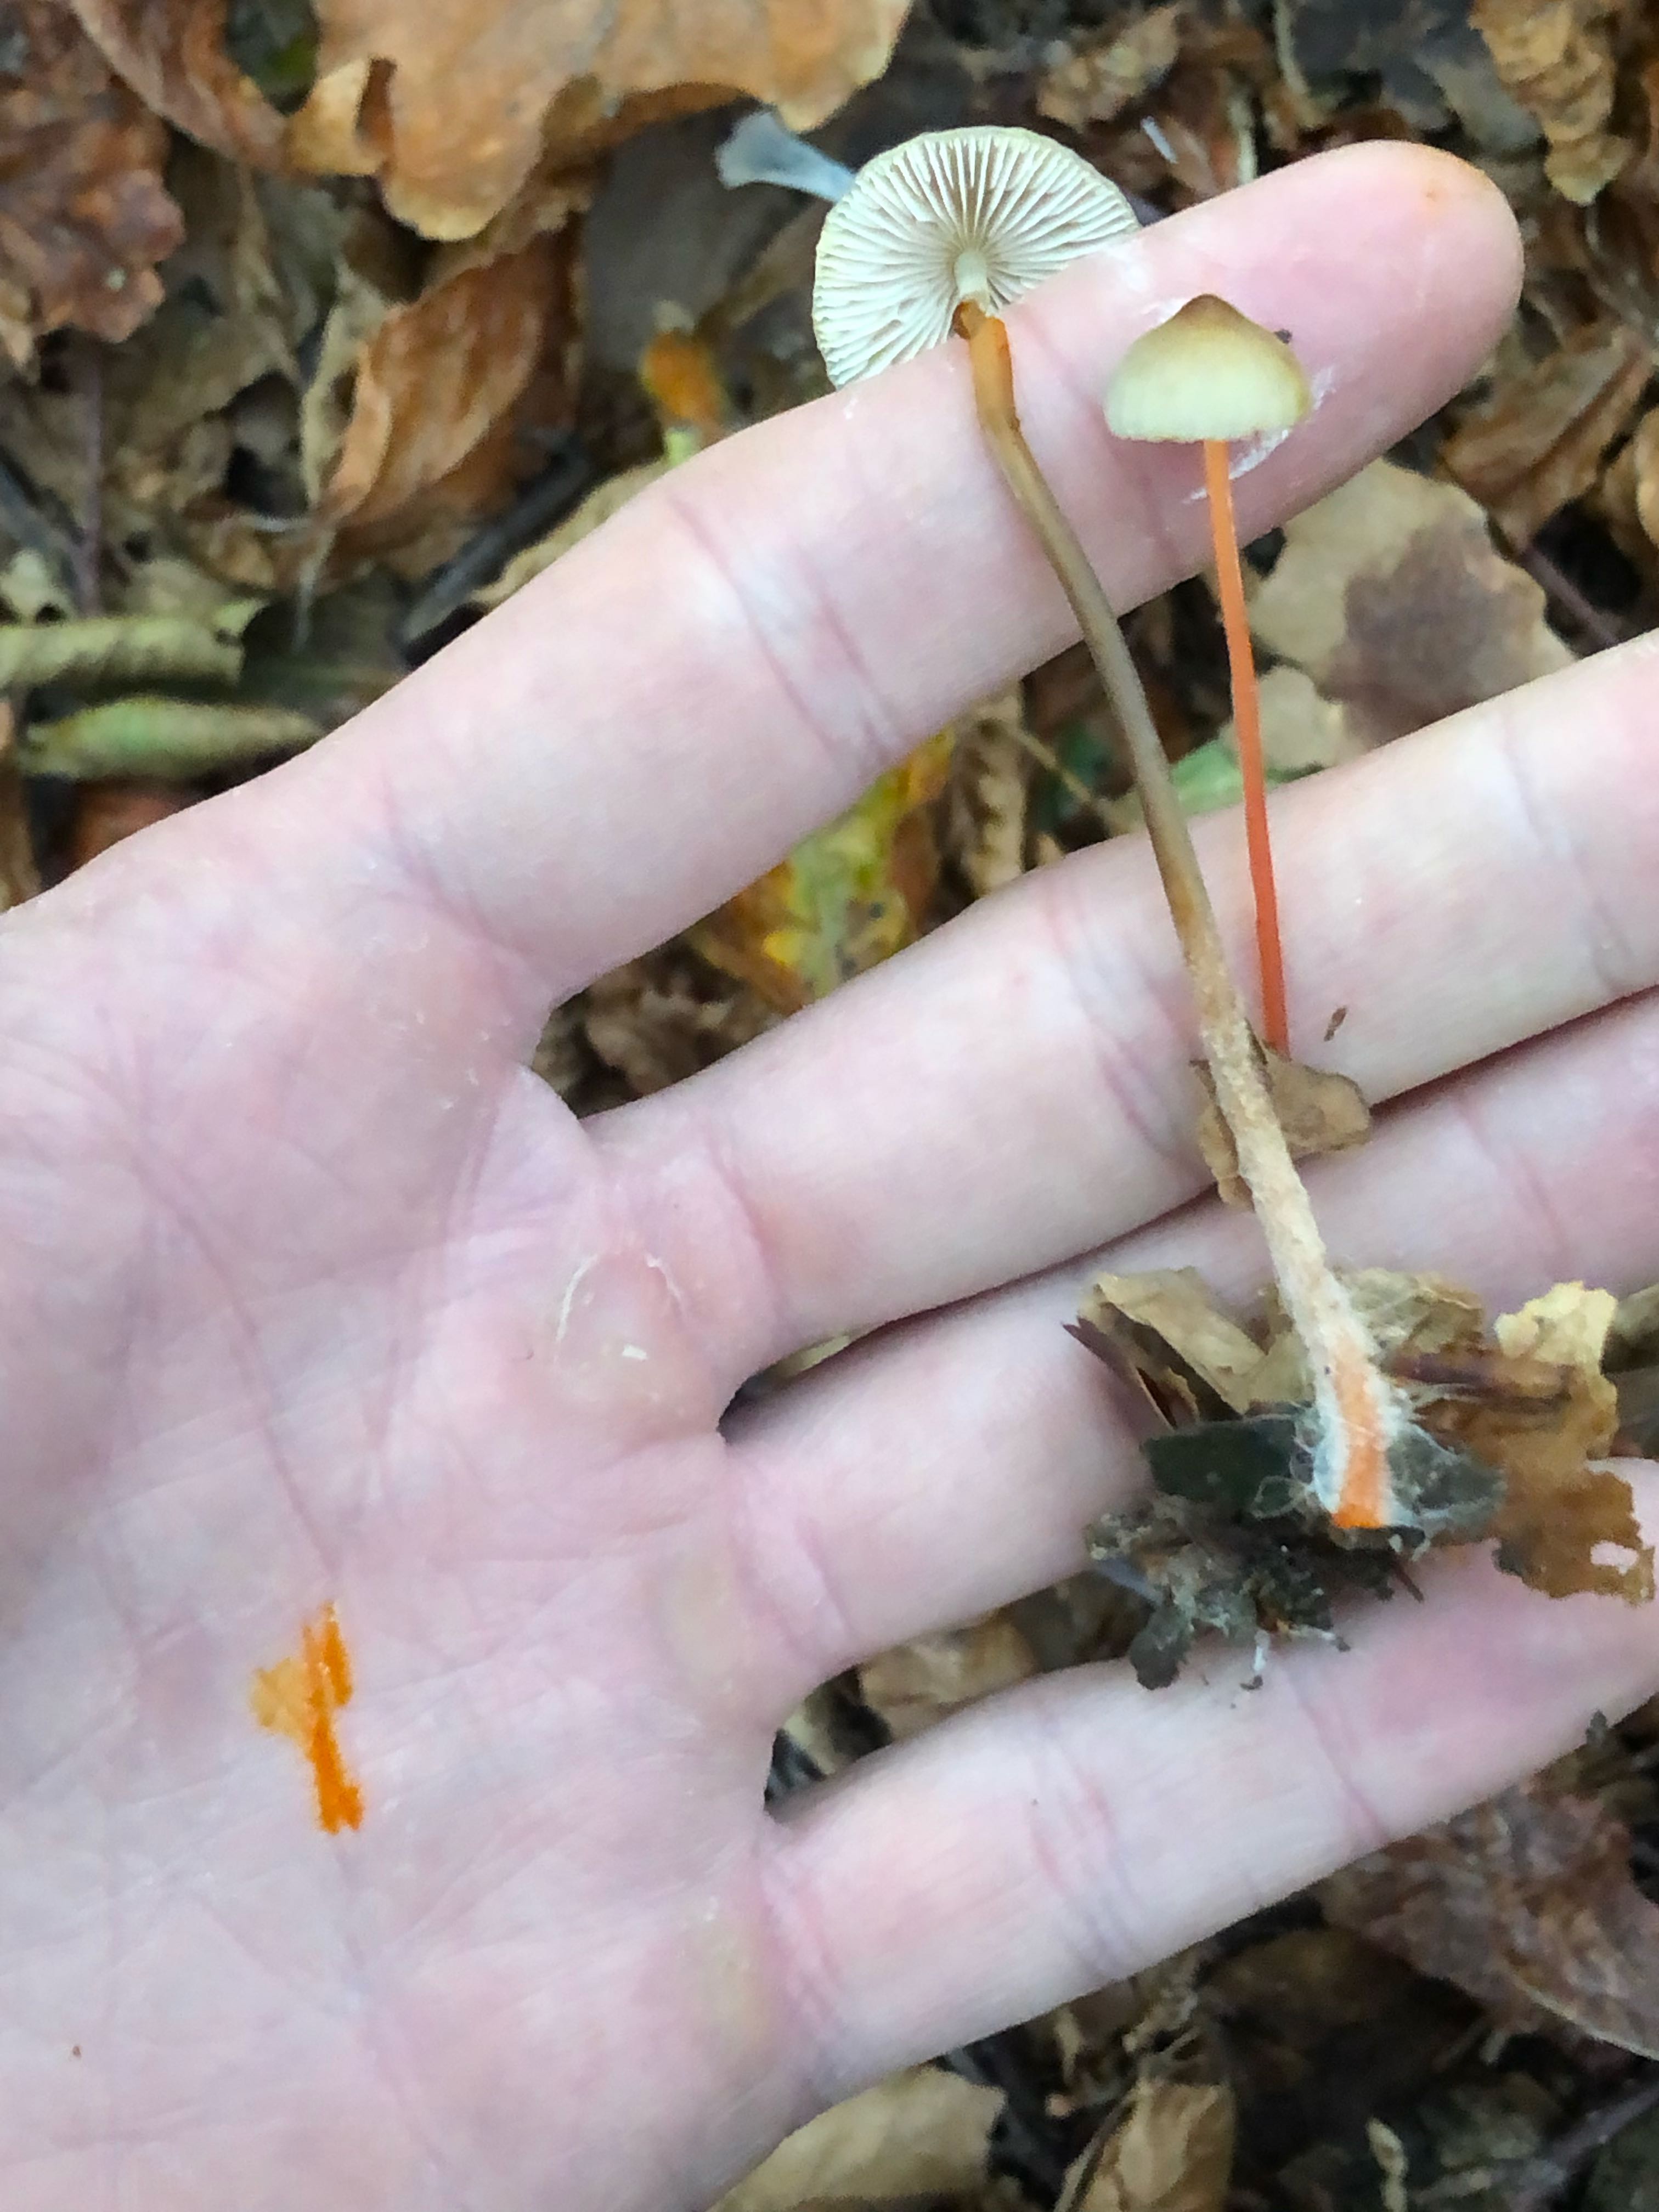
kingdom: Fungi
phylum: Basidiomycota
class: Agaricomycetes
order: Agaricales
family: Mycenaceae
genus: Mycena
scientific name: Mycena crocata
